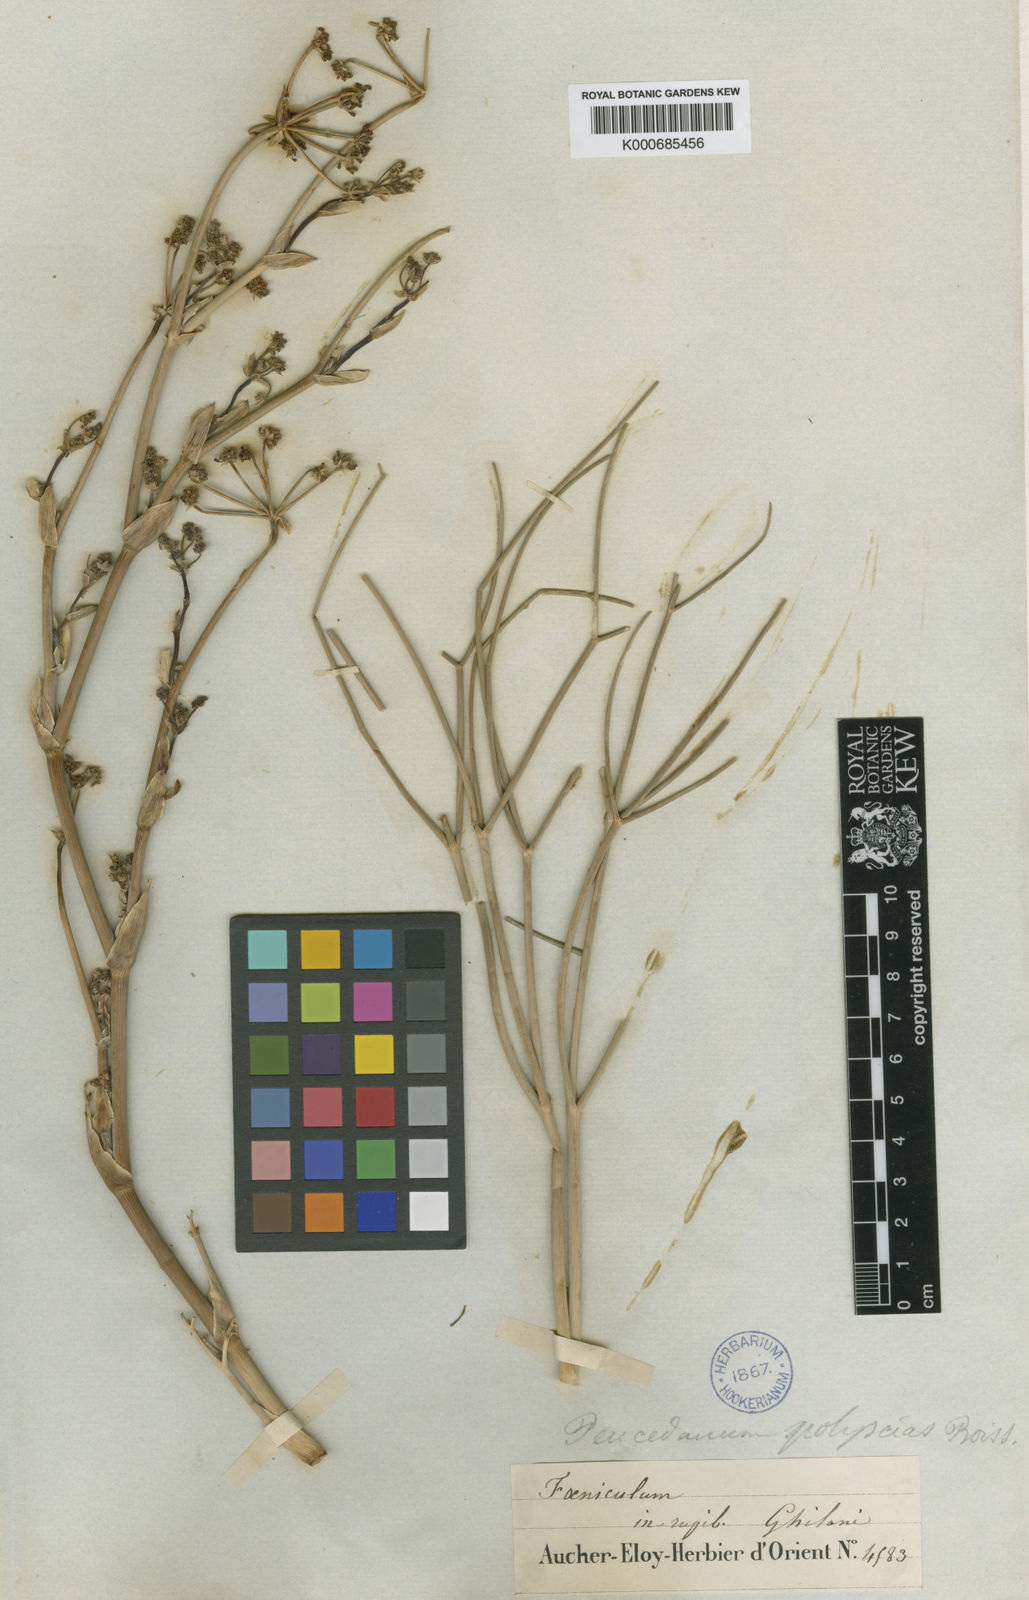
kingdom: Plantae
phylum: Tracheophyta
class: Magnoliopsida
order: Apiales
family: Apiaceae
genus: Leutea
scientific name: Leutea polyscias
